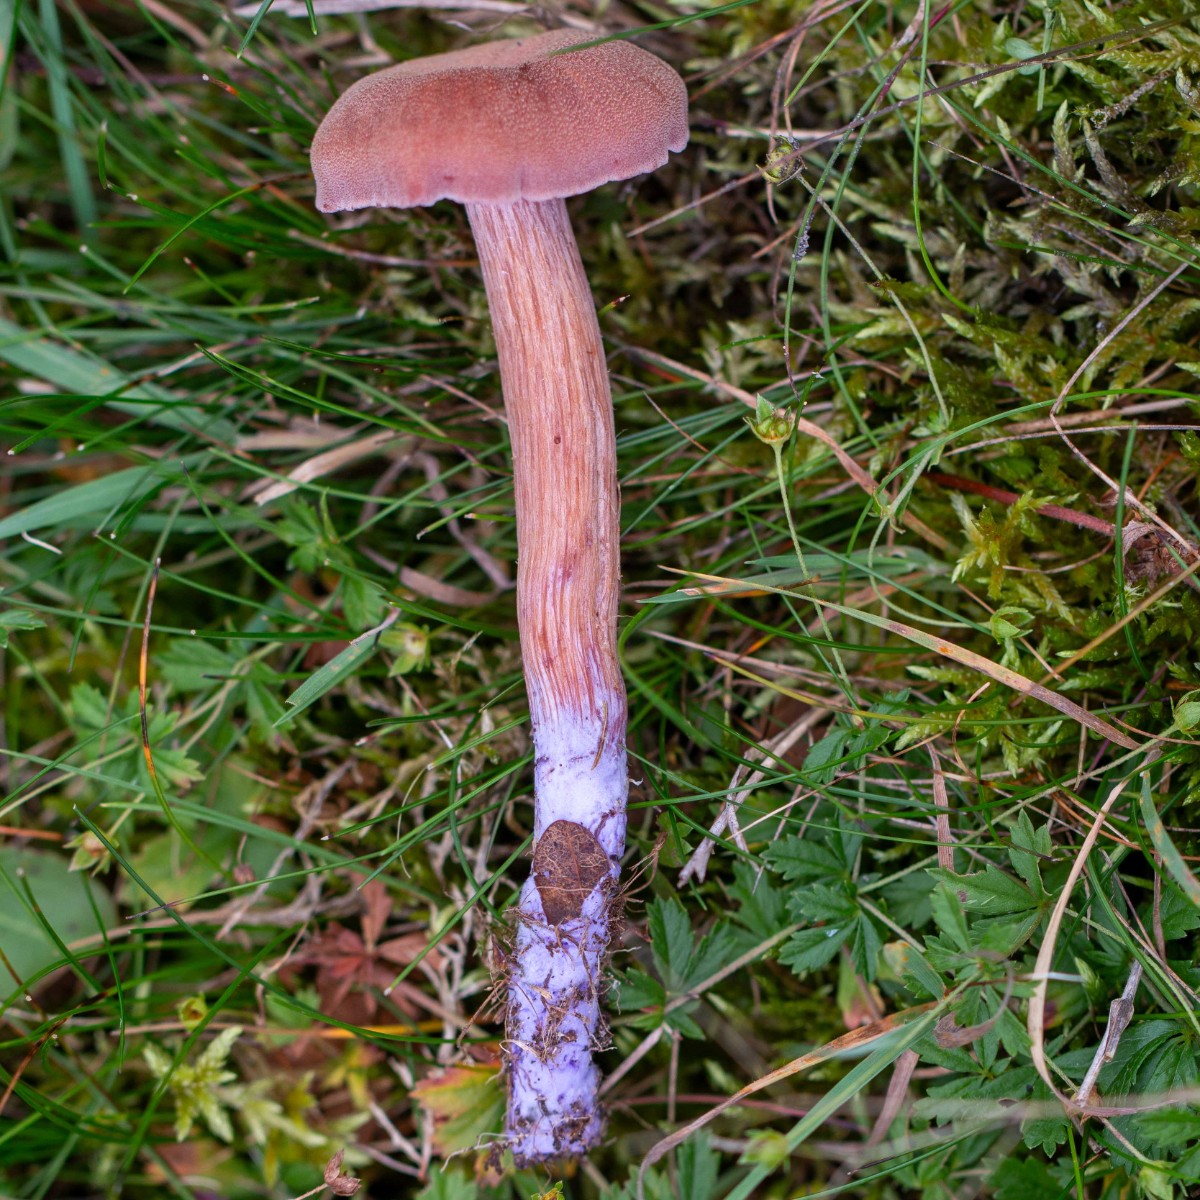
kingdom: Fungi
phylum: Basidiomycota
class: Agaricomycetes
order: Agaricales
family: Hydnangiaceae
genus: Laccaria
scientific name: Laccaria bicolor
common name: tvefarvet ametysthat
